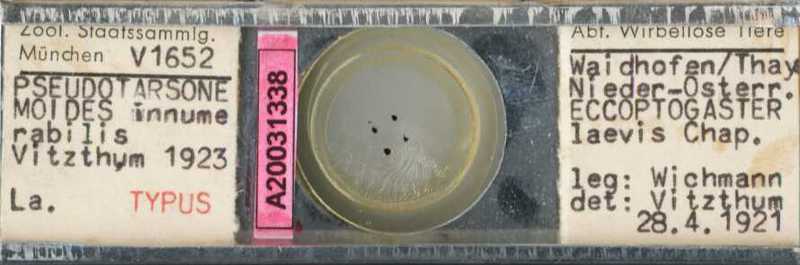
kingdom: Animalia
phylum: Arthropoda
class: Arachnida
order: Trombidiformes
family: Tarsonemidae
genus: Pseudotarsonemoides
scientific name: Pseudotarsonemoides innumerabilis
